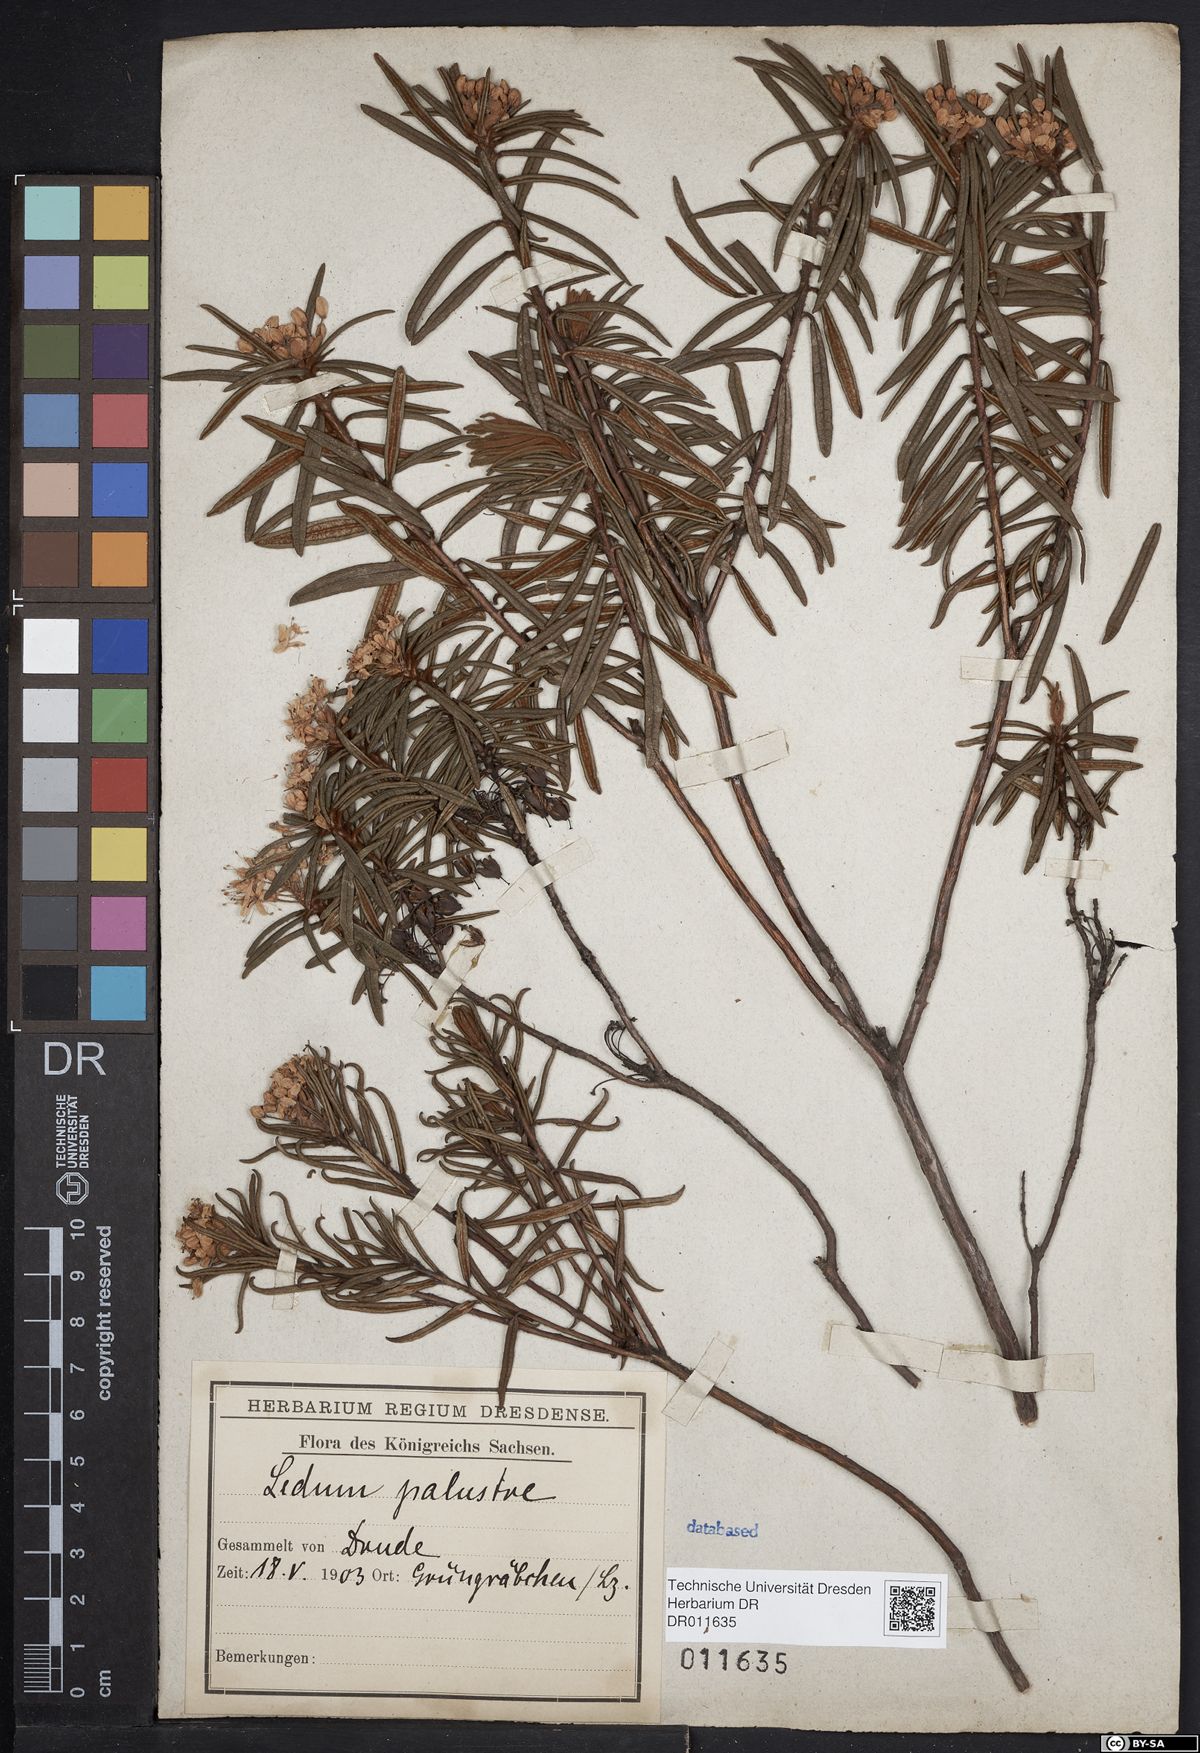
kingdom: Plantae
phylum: Tracheophyta
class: Magnoliopsida
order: Ericales
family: Ericaceae
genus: Rhododendron
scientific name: Rhododendron tomentosum
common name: Marsh labrador tea
